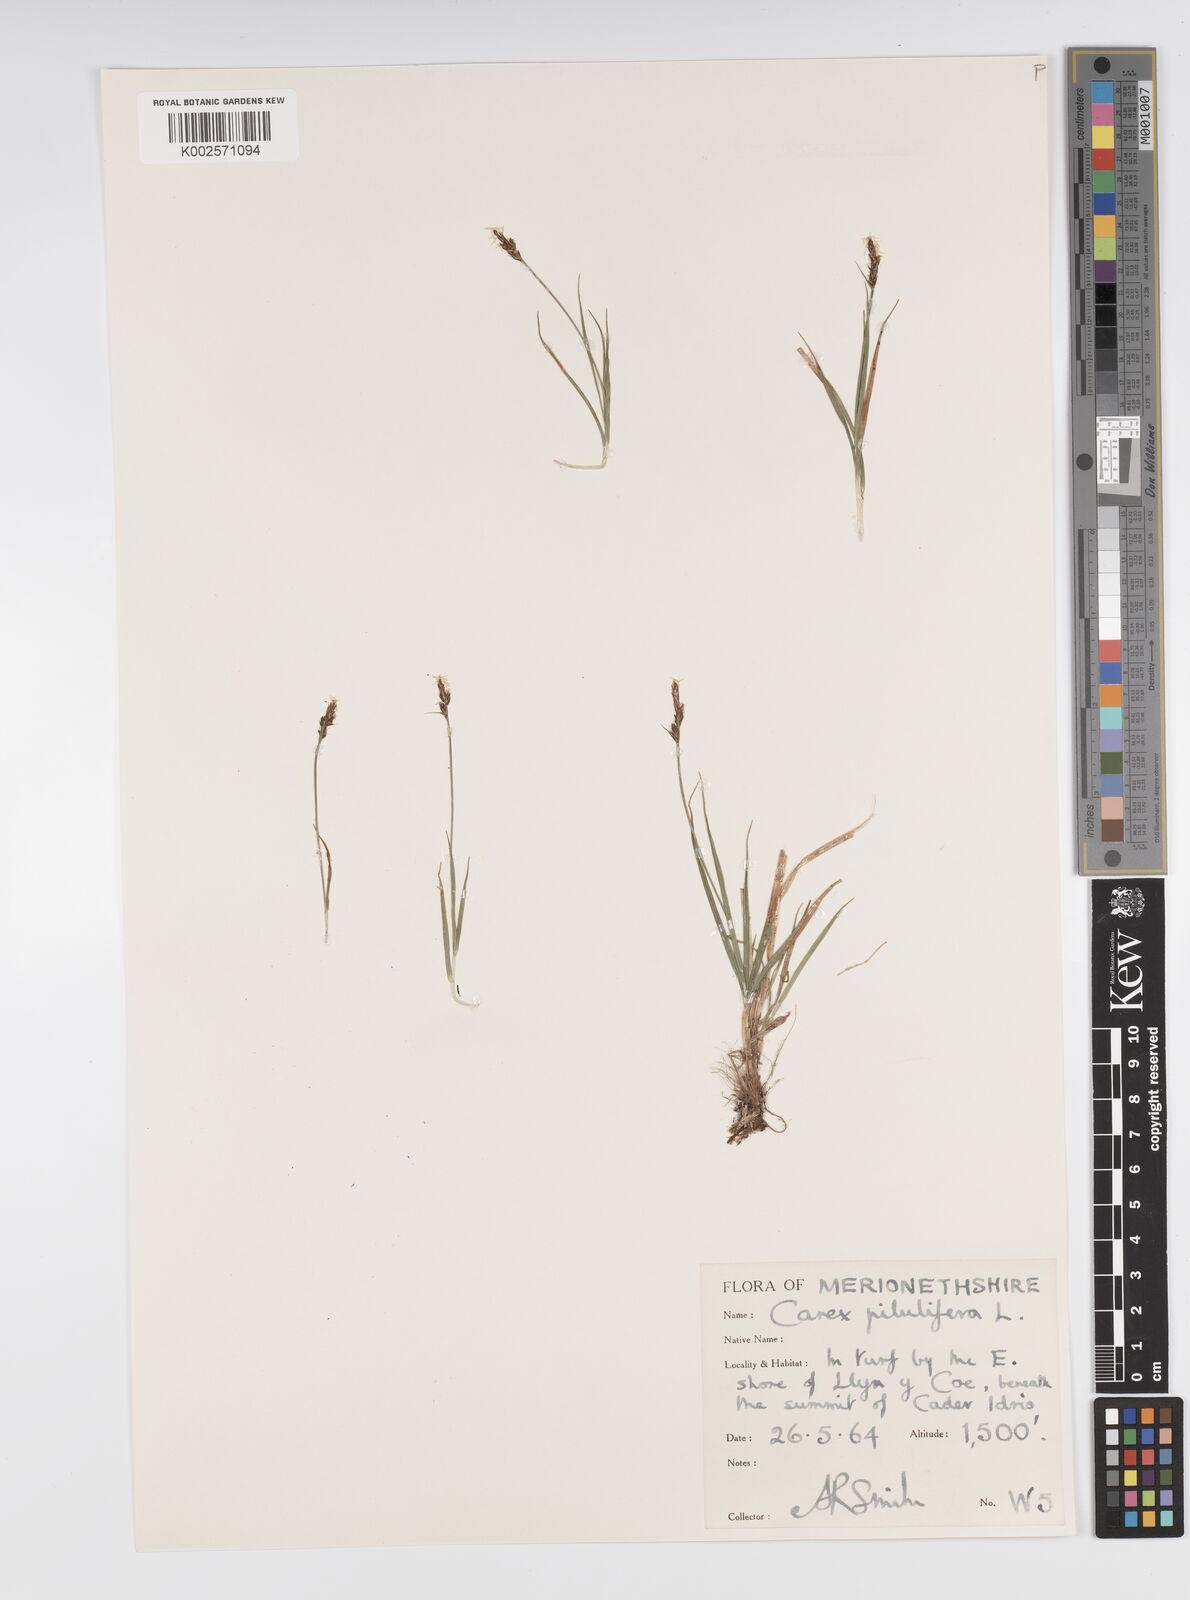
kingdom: Plantae
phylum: Tracheophyta
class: Liliopsida
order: Poales
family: Cyperaceae
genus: Carex
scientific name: Carex pilulifera
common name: Pill sedge
